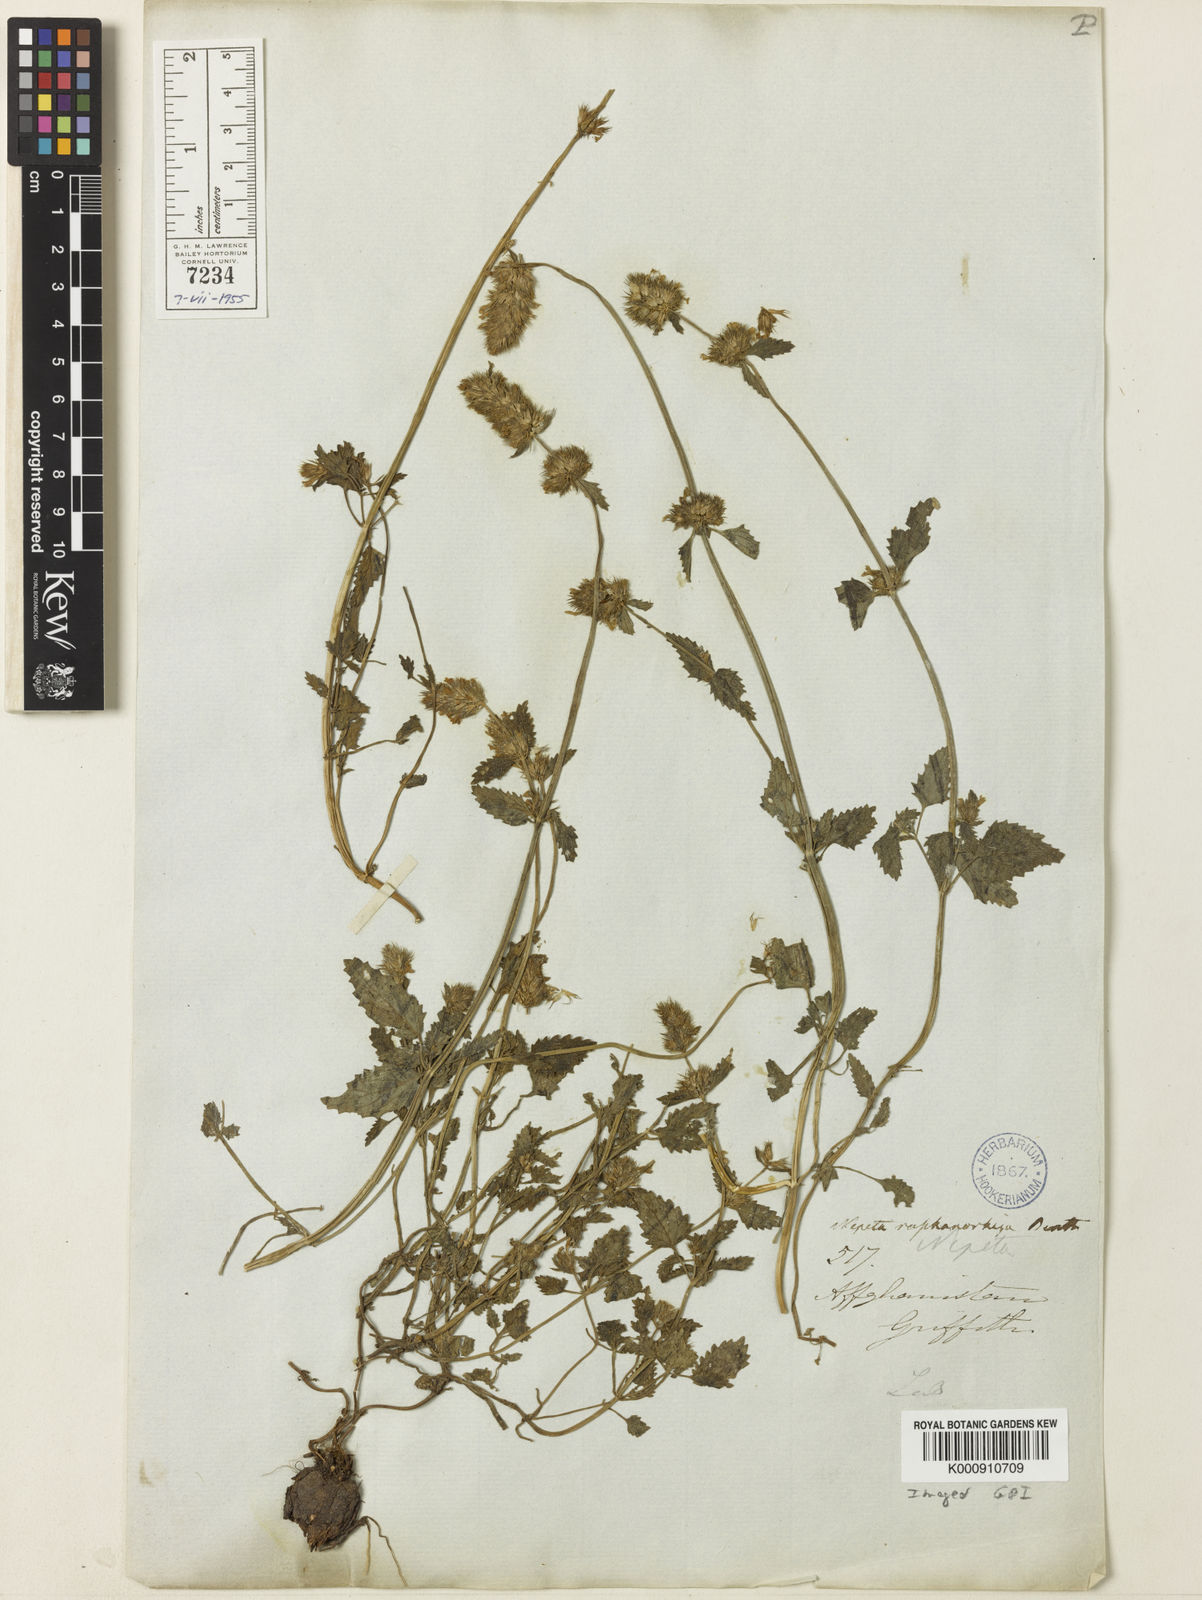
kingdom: Plantae
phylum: Tracheophyta
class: Magnoliopsida
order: Lamiales
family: Lamiaceae
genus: Nepeta
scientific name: Nepeta raphanorhiza
